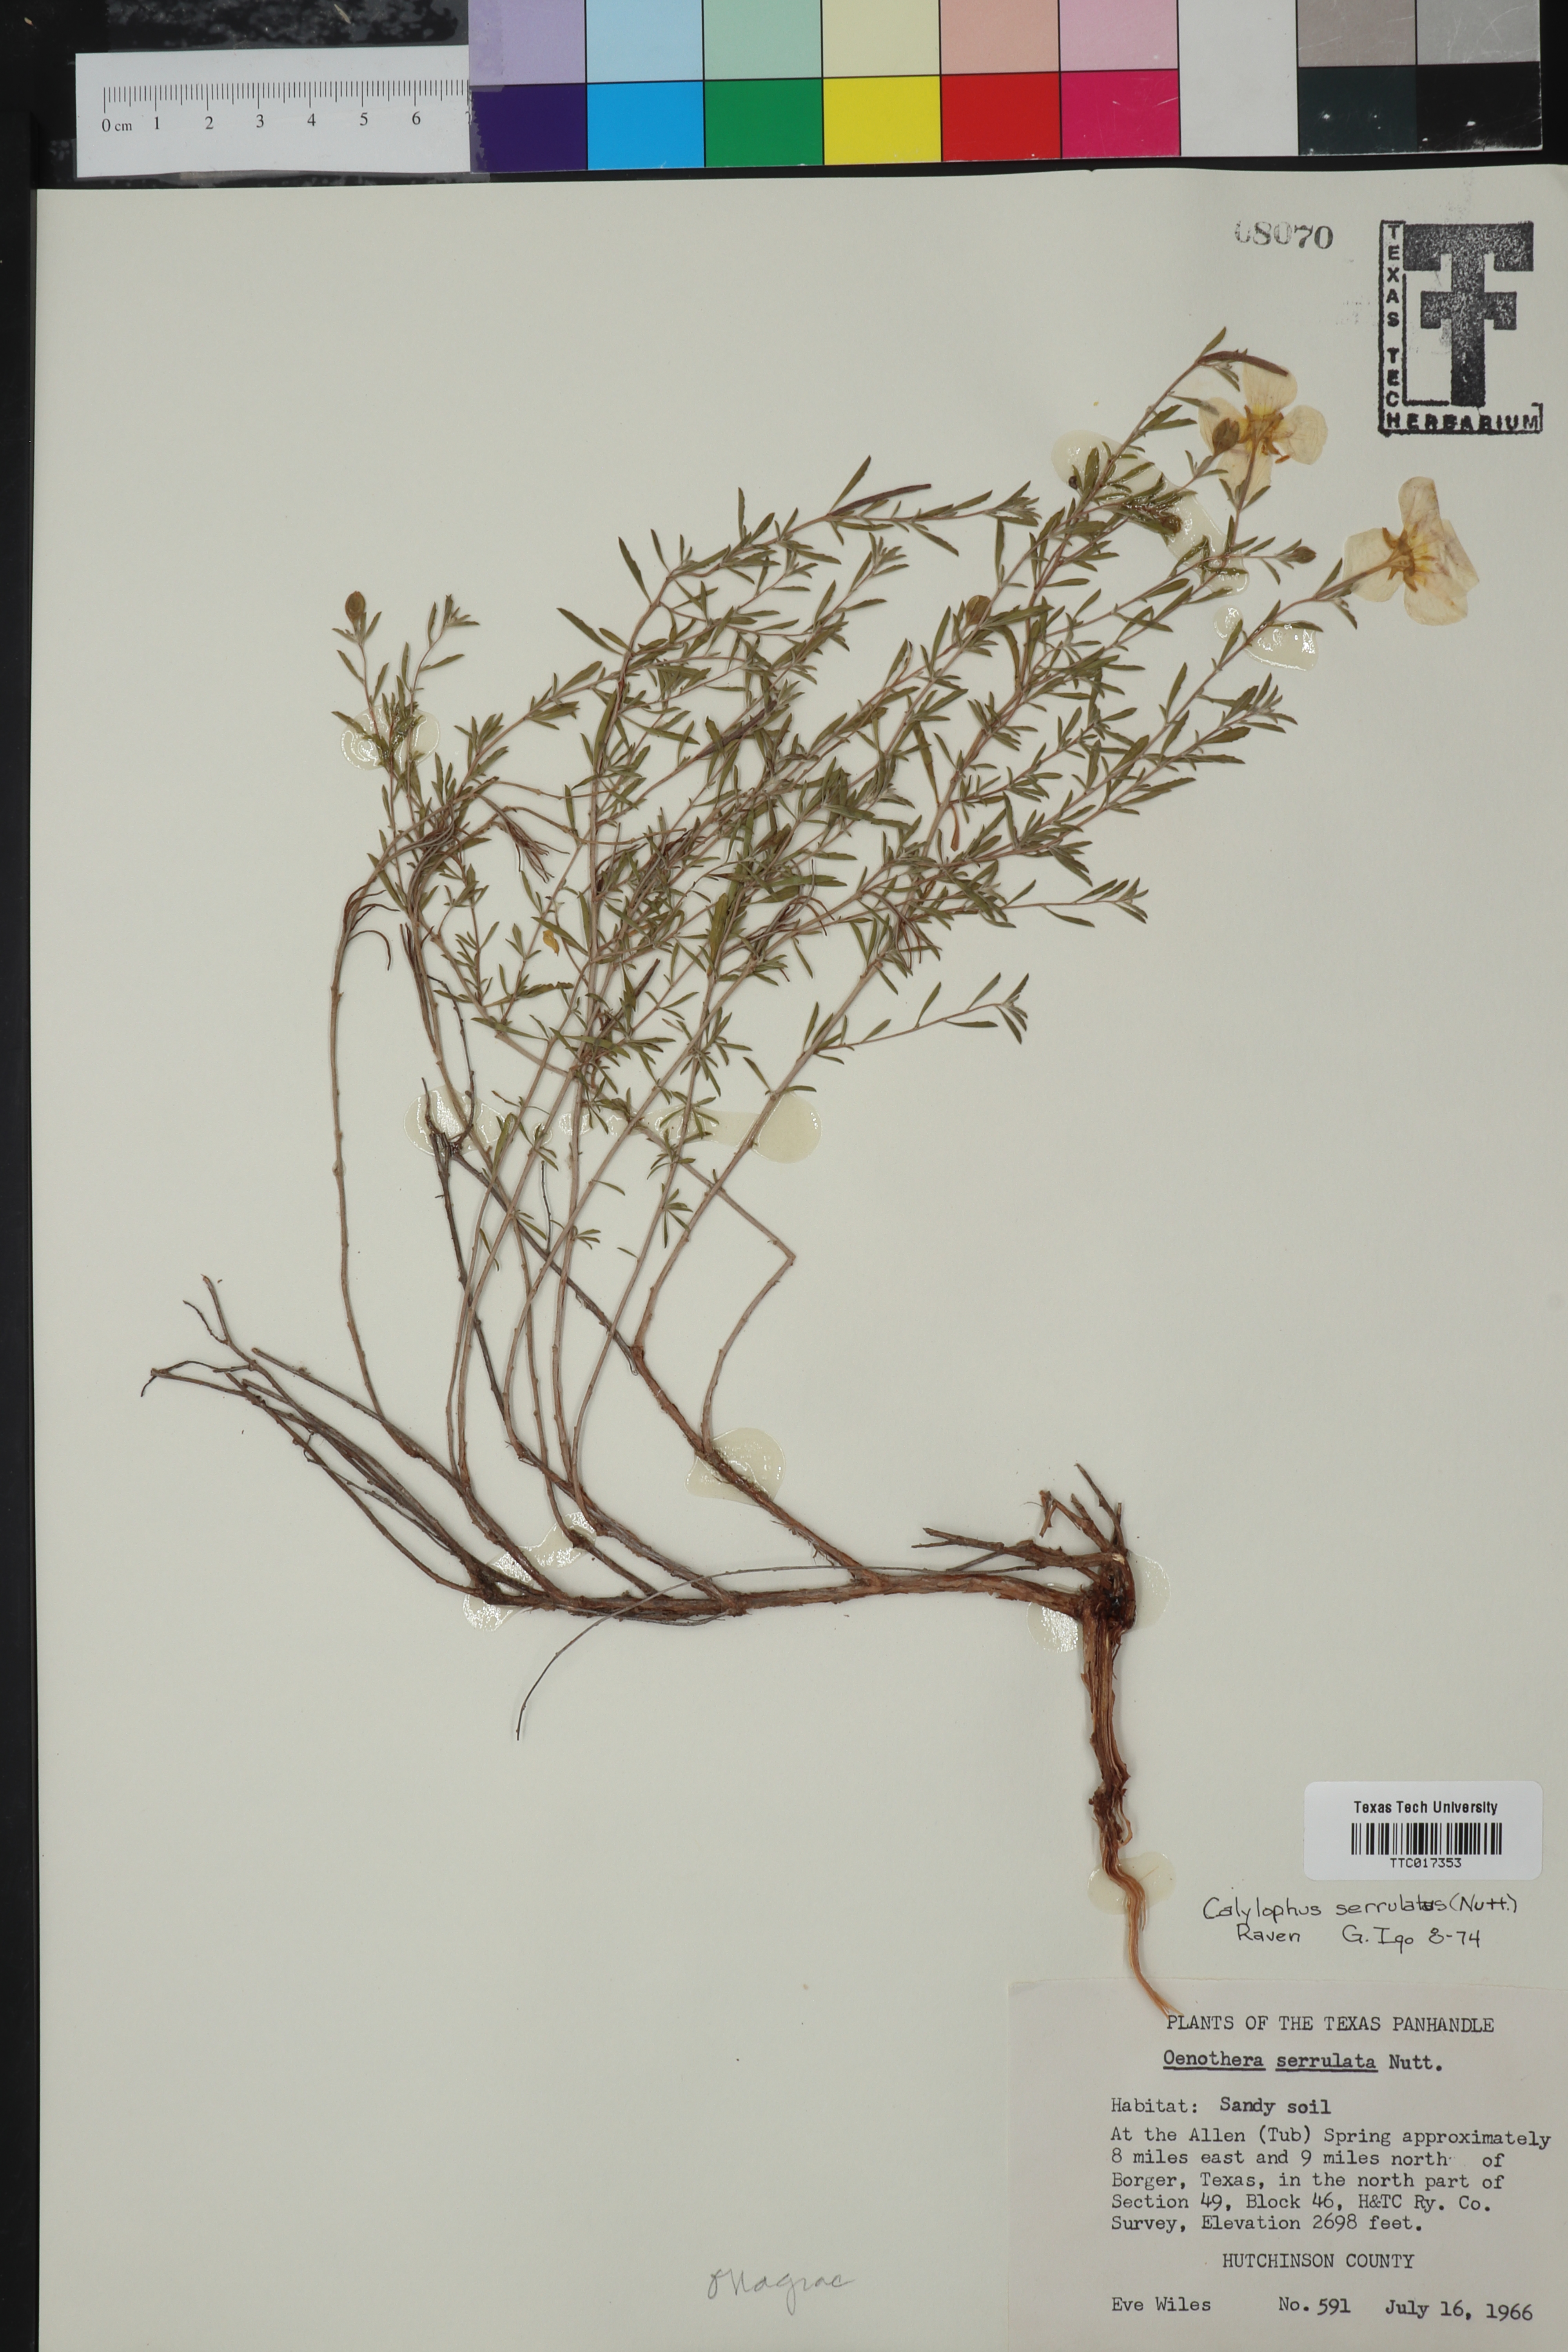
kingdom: Plantae
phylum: Tracheophyta
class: Magnoliopsida
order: Myrtales
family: Onagraceae
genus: Oenothera
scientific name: Oenothera serrulata
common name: Half-shrub calylophus
